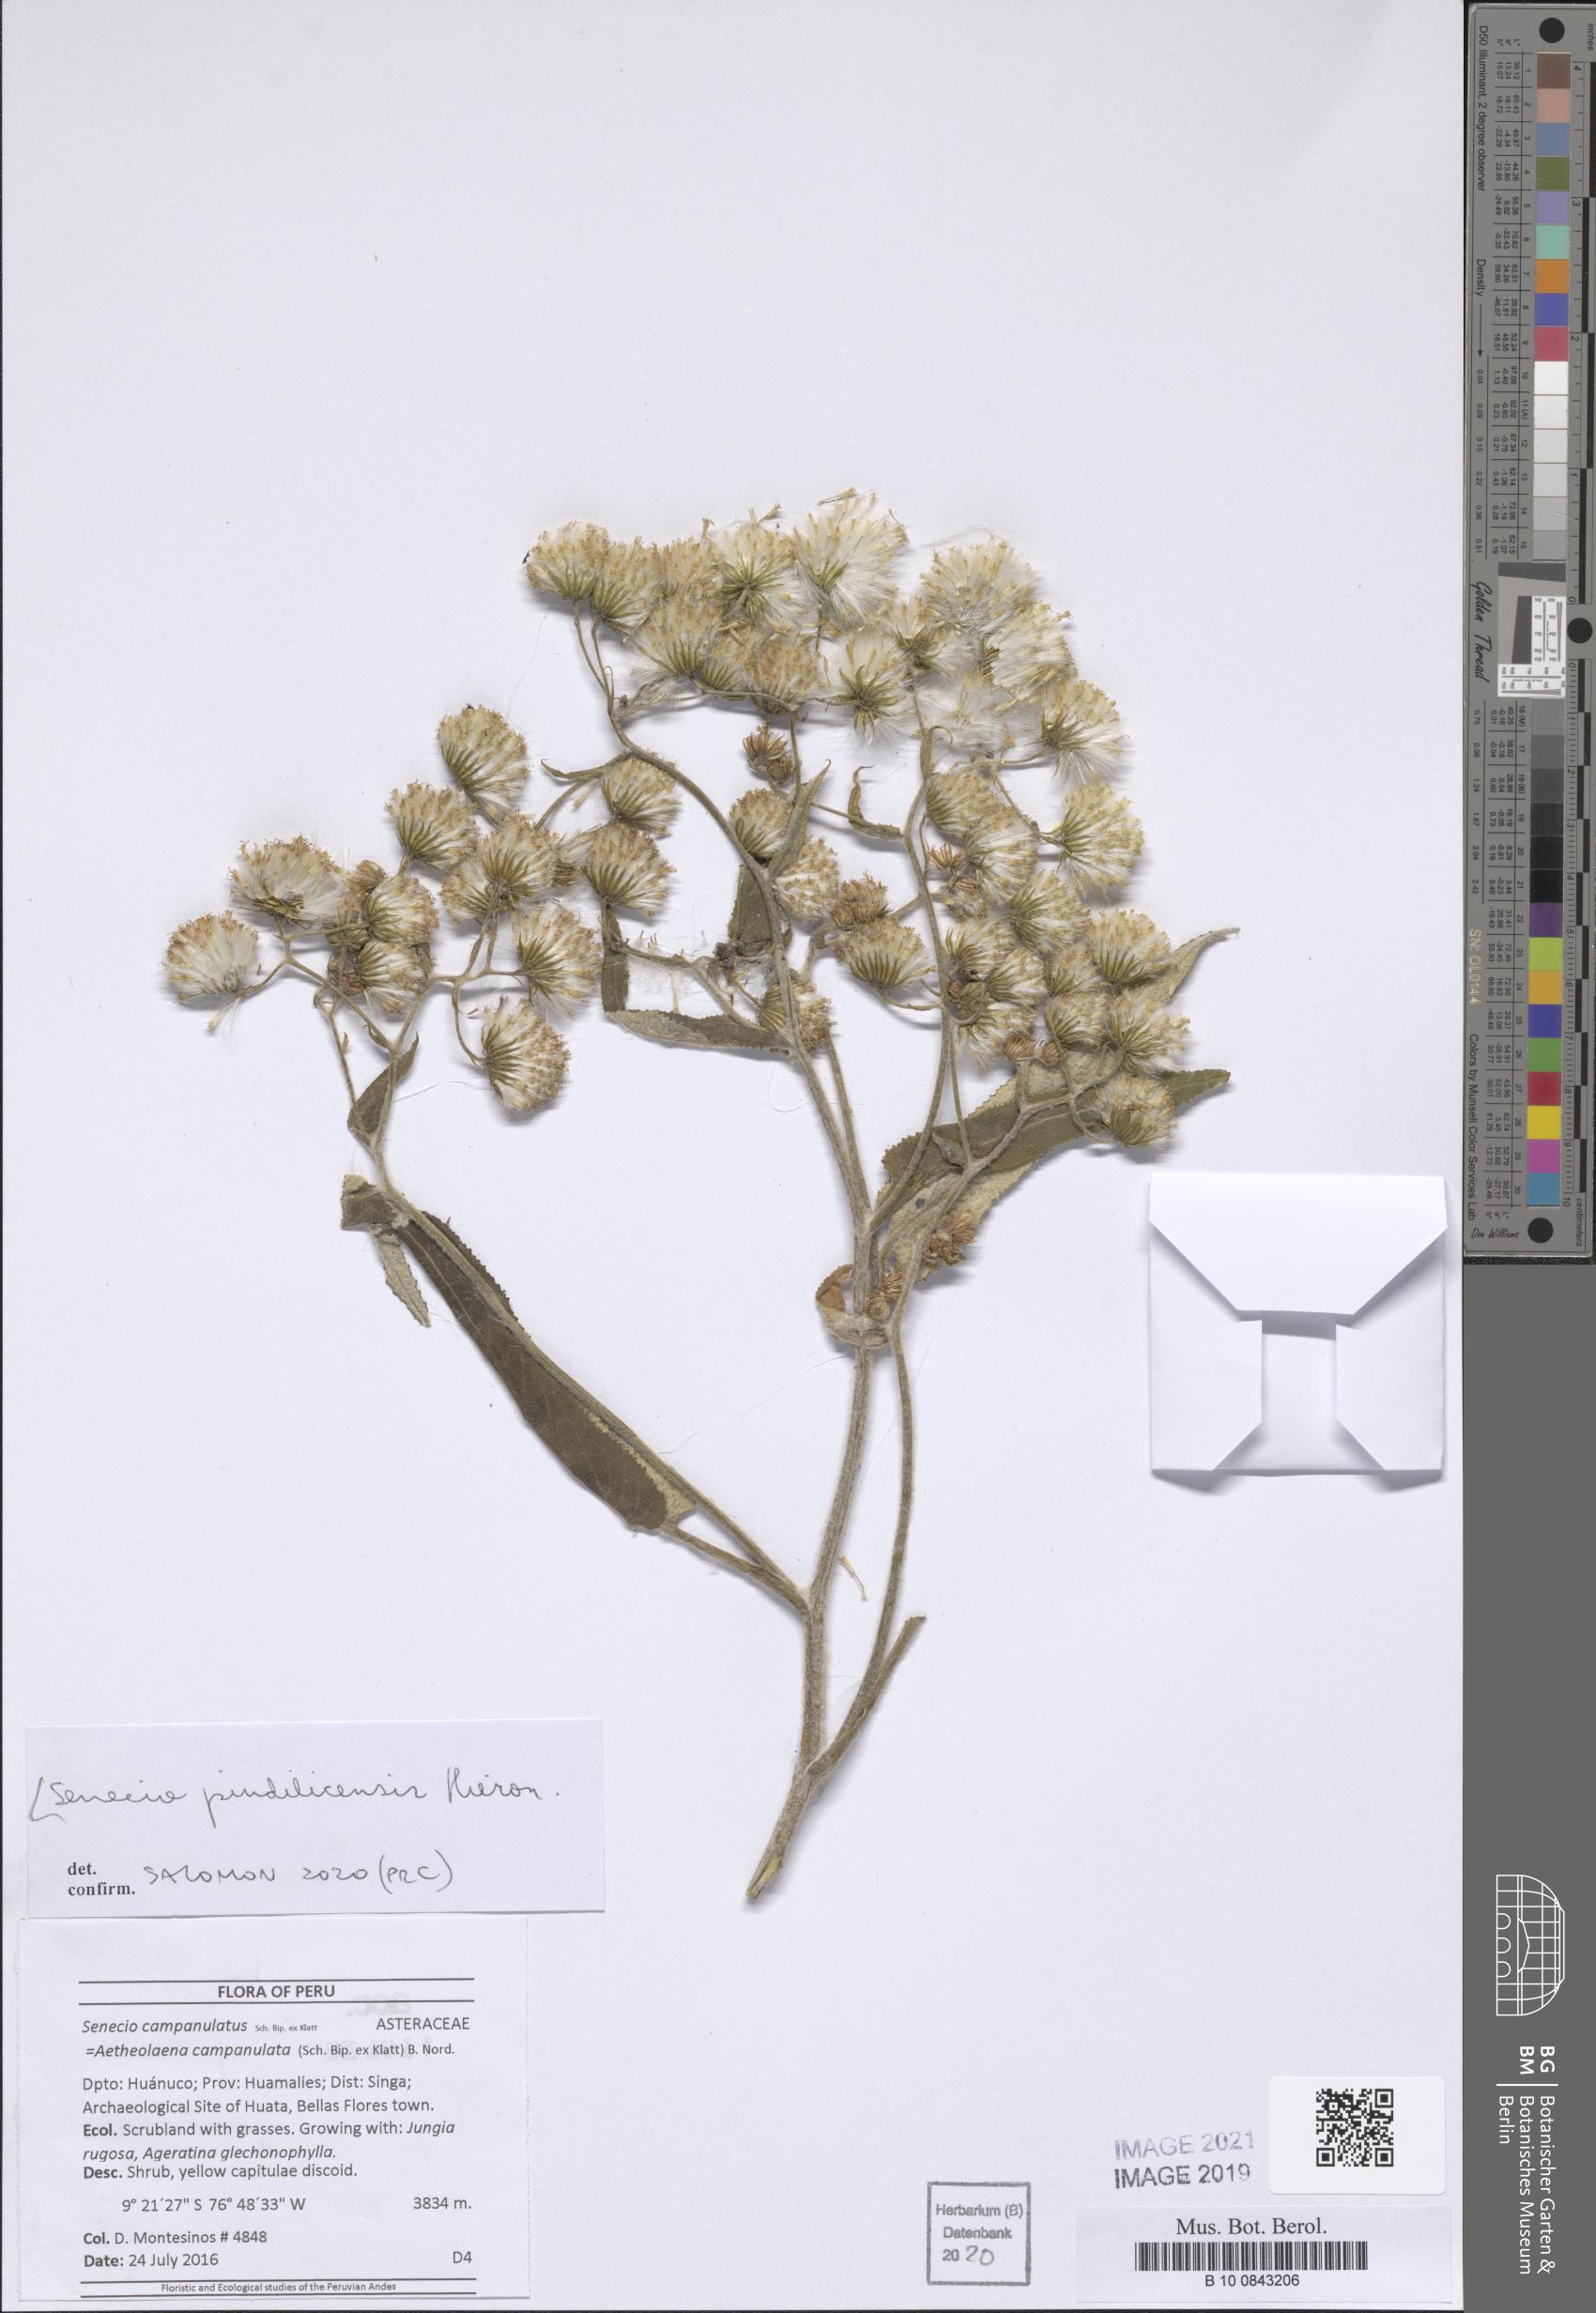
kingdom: Plantae
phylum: Tracheophyta
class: Magnoliopsida
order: Asterales
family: Asteraceae
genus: Aetheolaena
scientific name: Aetheolaena heterophylla
